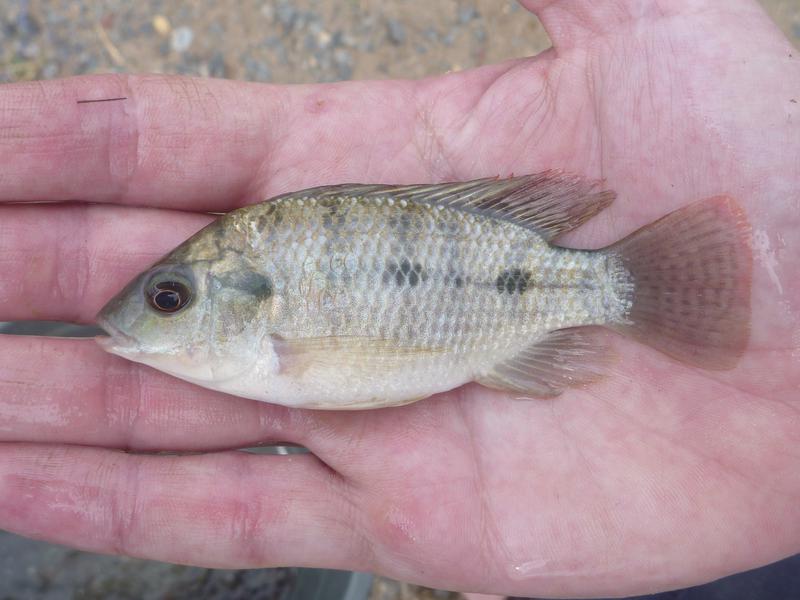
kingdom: Animalia
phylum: Chordata
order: Perciformes
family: Cichlidae
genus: Oreochromis
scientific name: Oreochromis urolepis
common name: Wami tilapia
